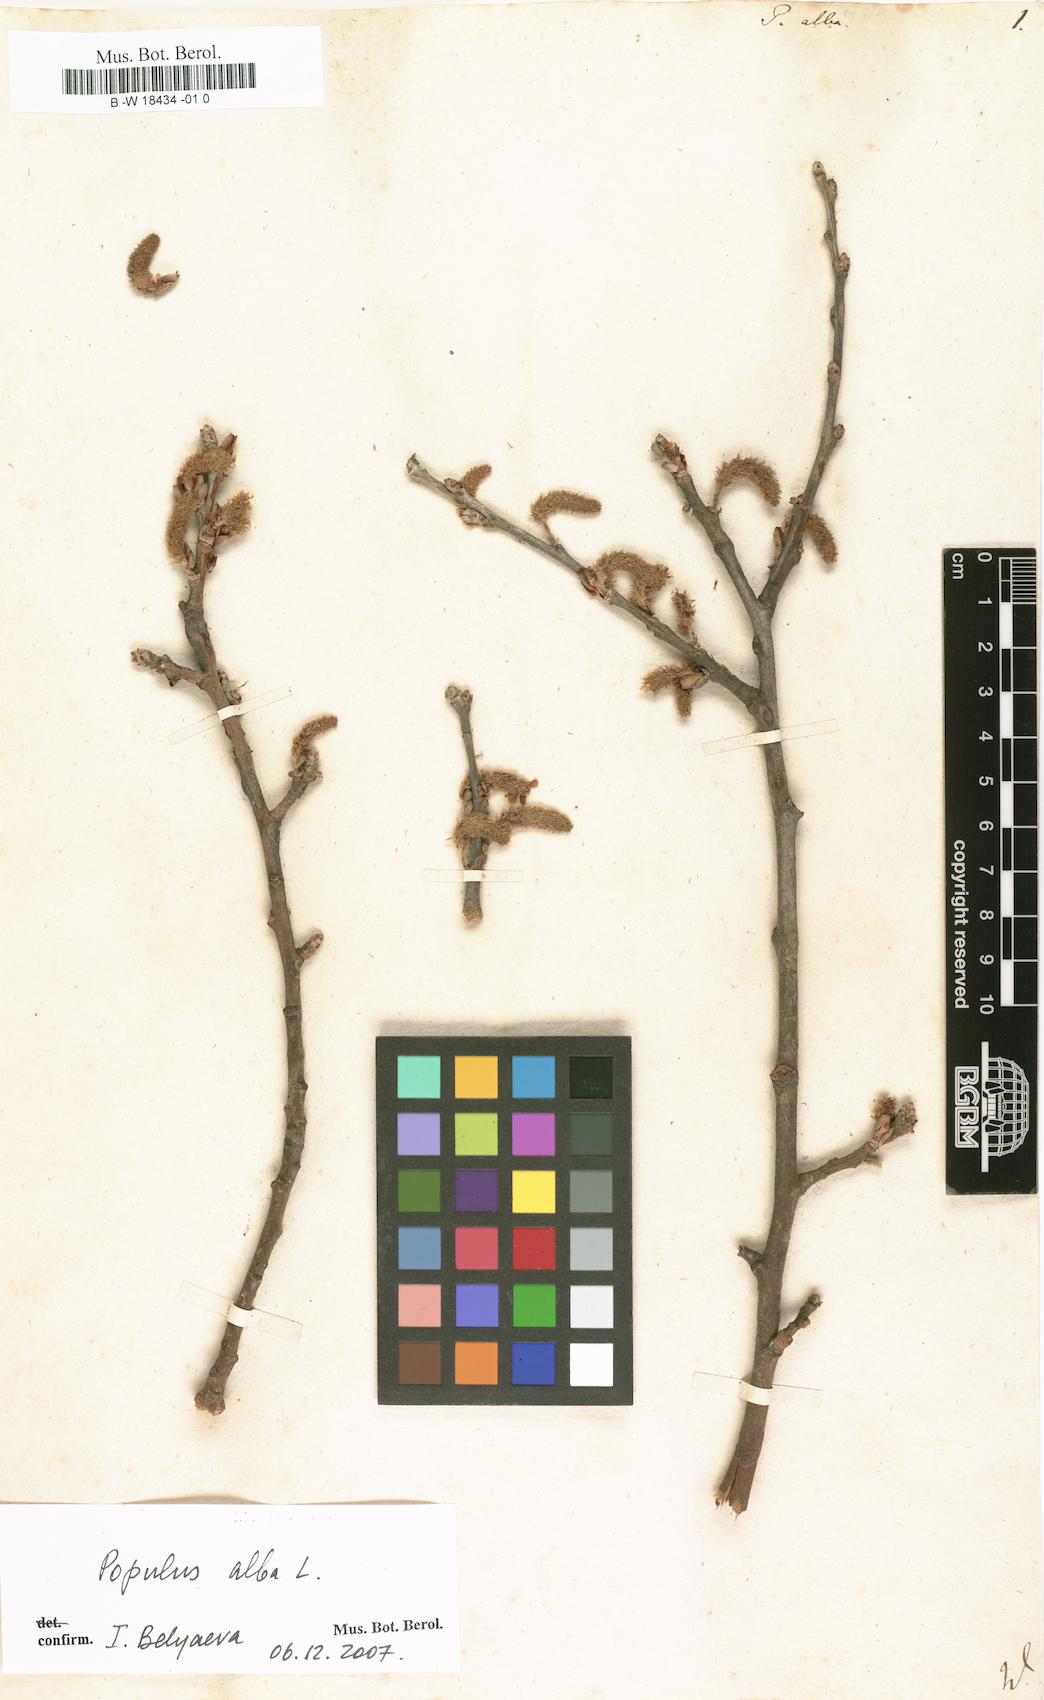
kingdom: Plantae
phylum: Tracheophyta
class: Magnoliopsida
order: Malpighiales
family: Salicaceae
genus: Populus
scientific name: Populus alba
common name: White poplar
